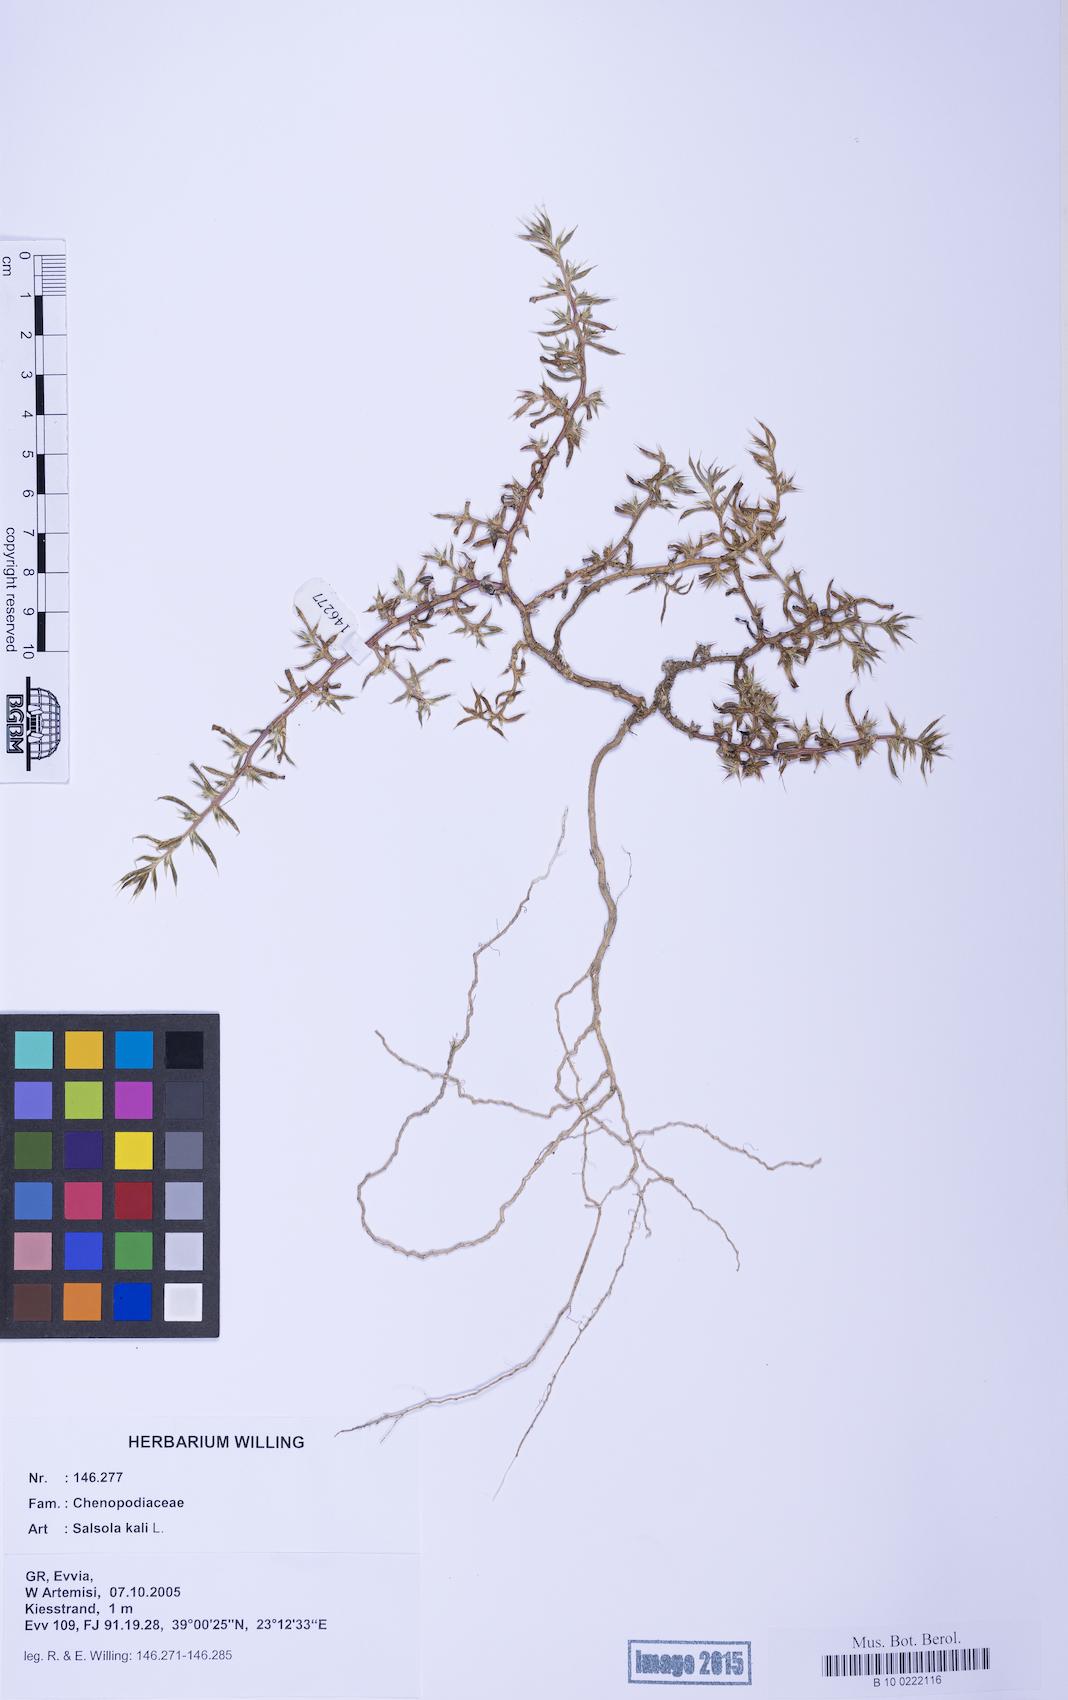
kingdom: Plantae
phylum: Tracheophyta
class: Magnoliopsida
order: Caryophyllales
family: Amaranthaceae
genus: Salsola
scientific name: Salsola kali
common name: Saltwort
